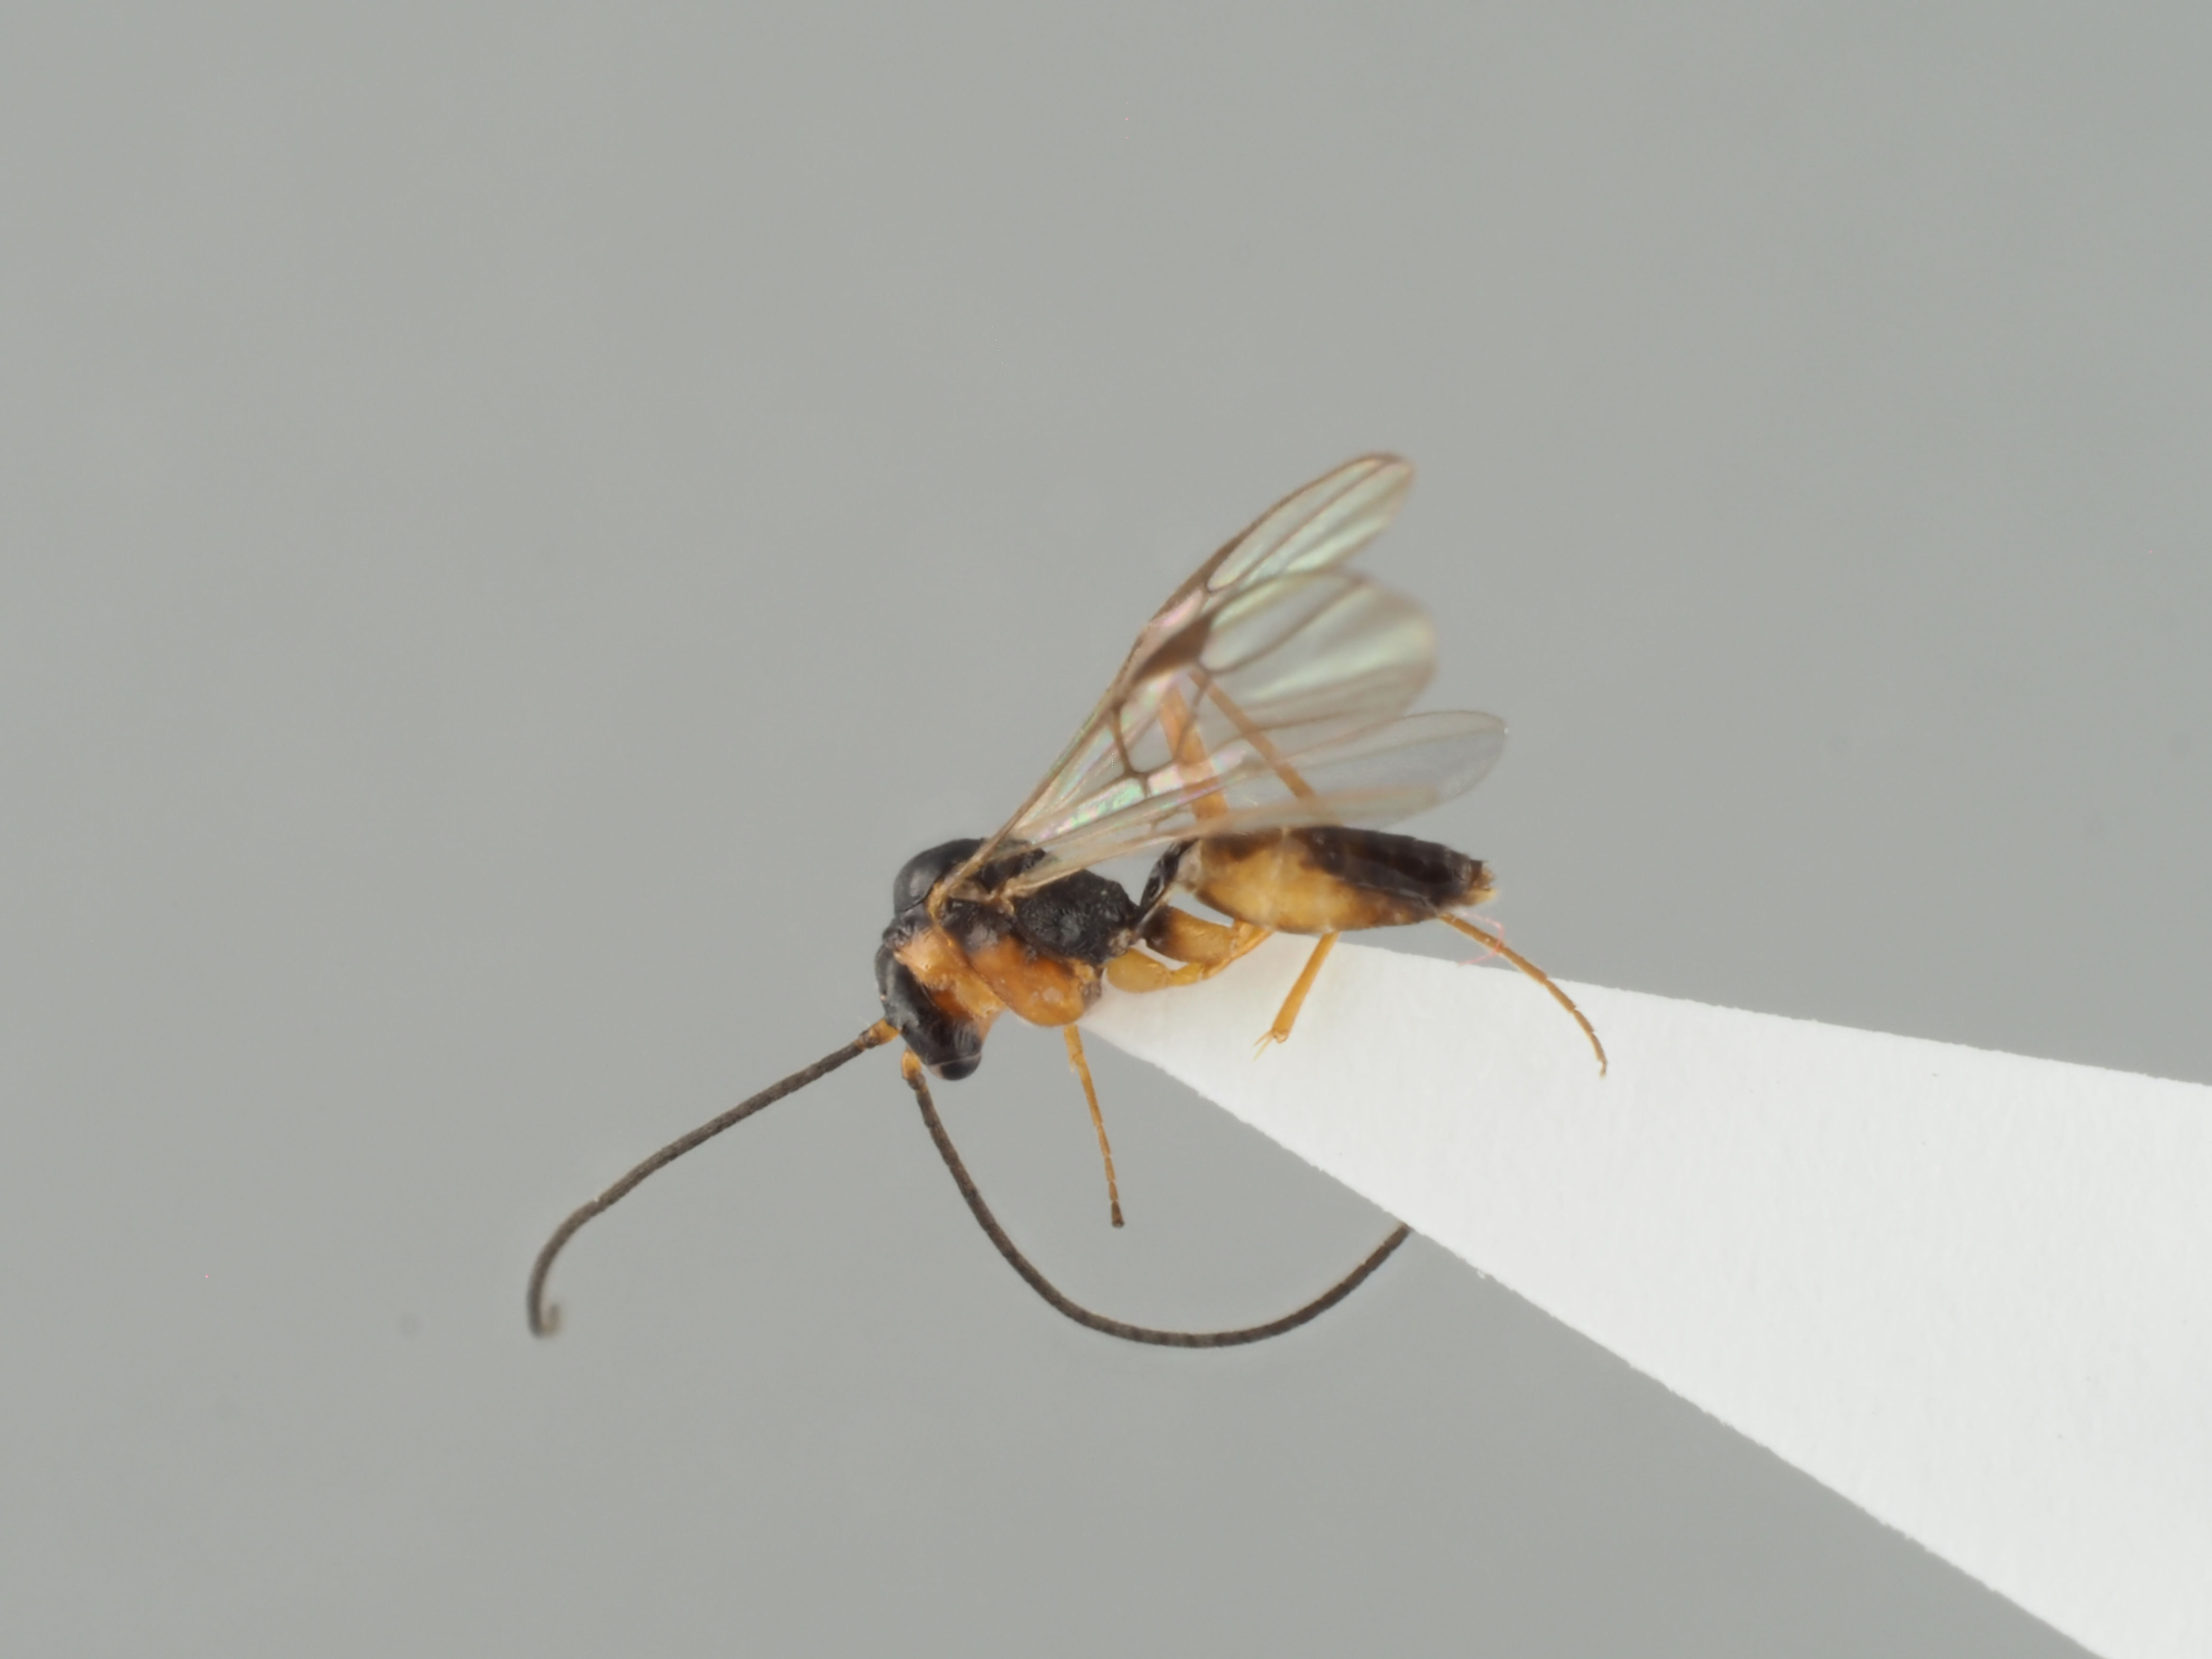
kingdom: Animalia
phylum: Arthropoda
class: Insecta
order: Hymenoptera
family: Braconidae
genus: Myiocephalus
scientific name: Myiocephalus boops
